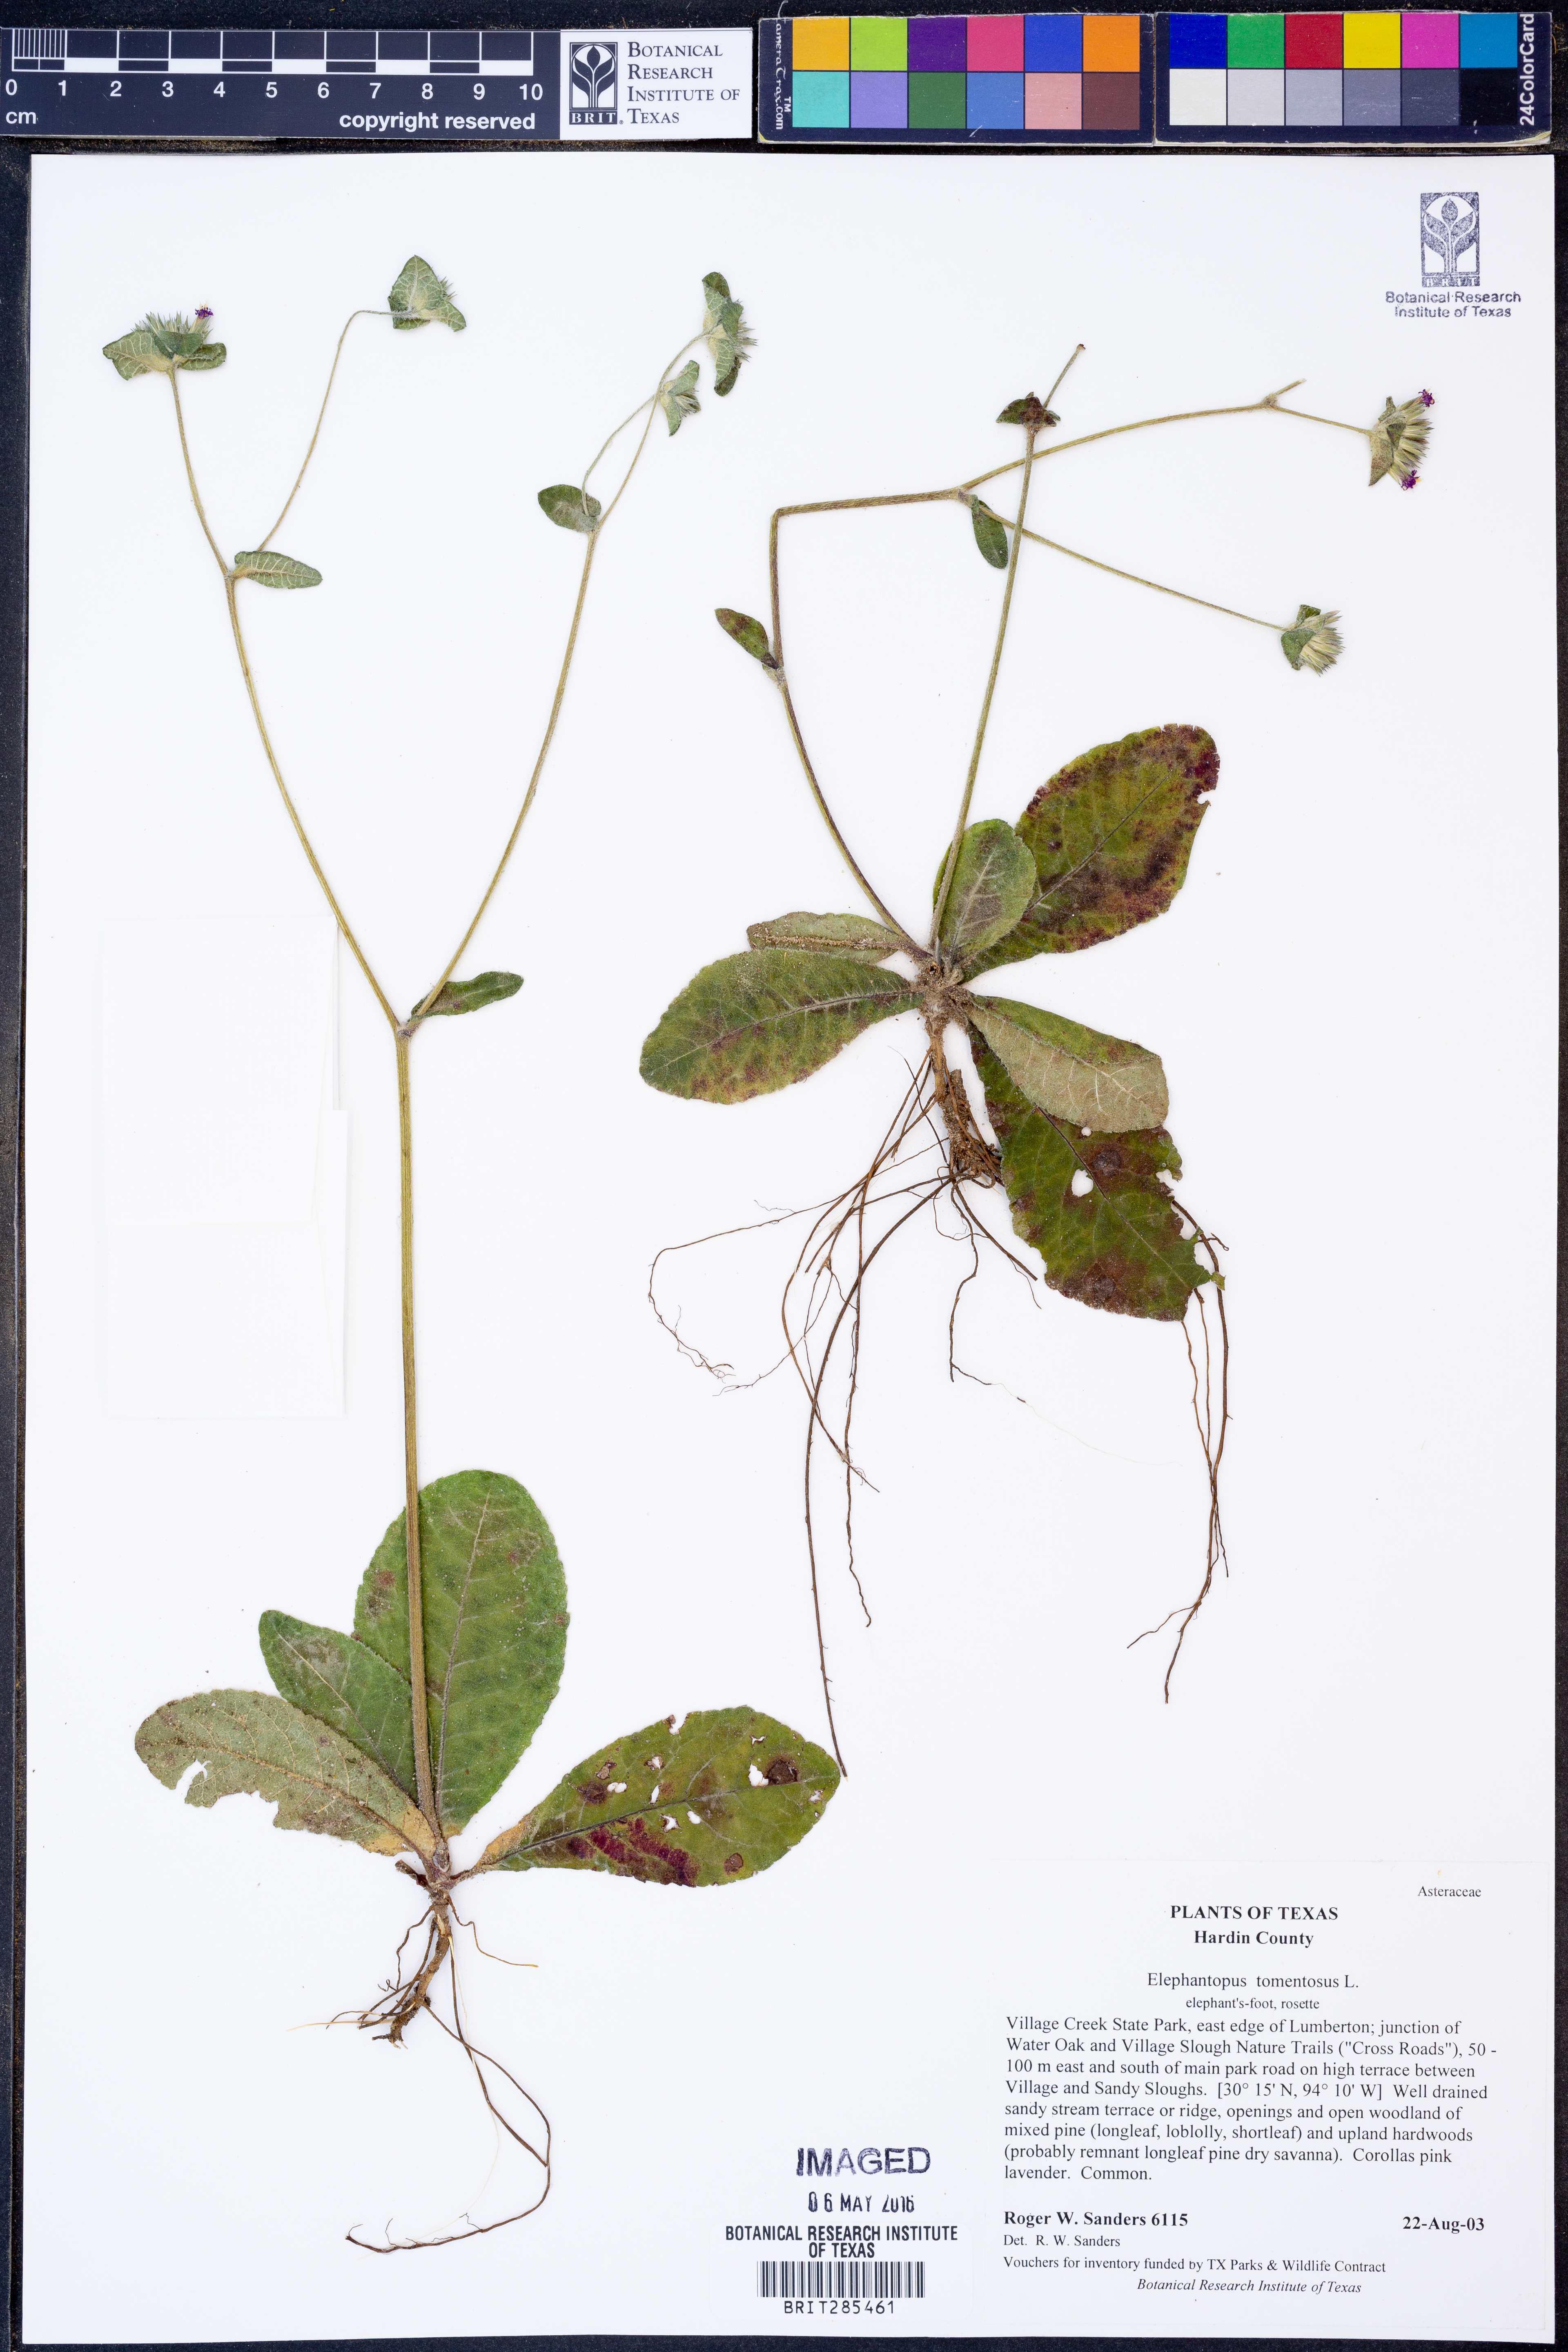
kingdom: Plantae
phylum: Tracheophyta
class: Magnoliopsida
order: Asterales
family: Asteraceae
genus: Elephantopus
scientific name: Elephantopus tomentosus
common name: Tobacco-weed
